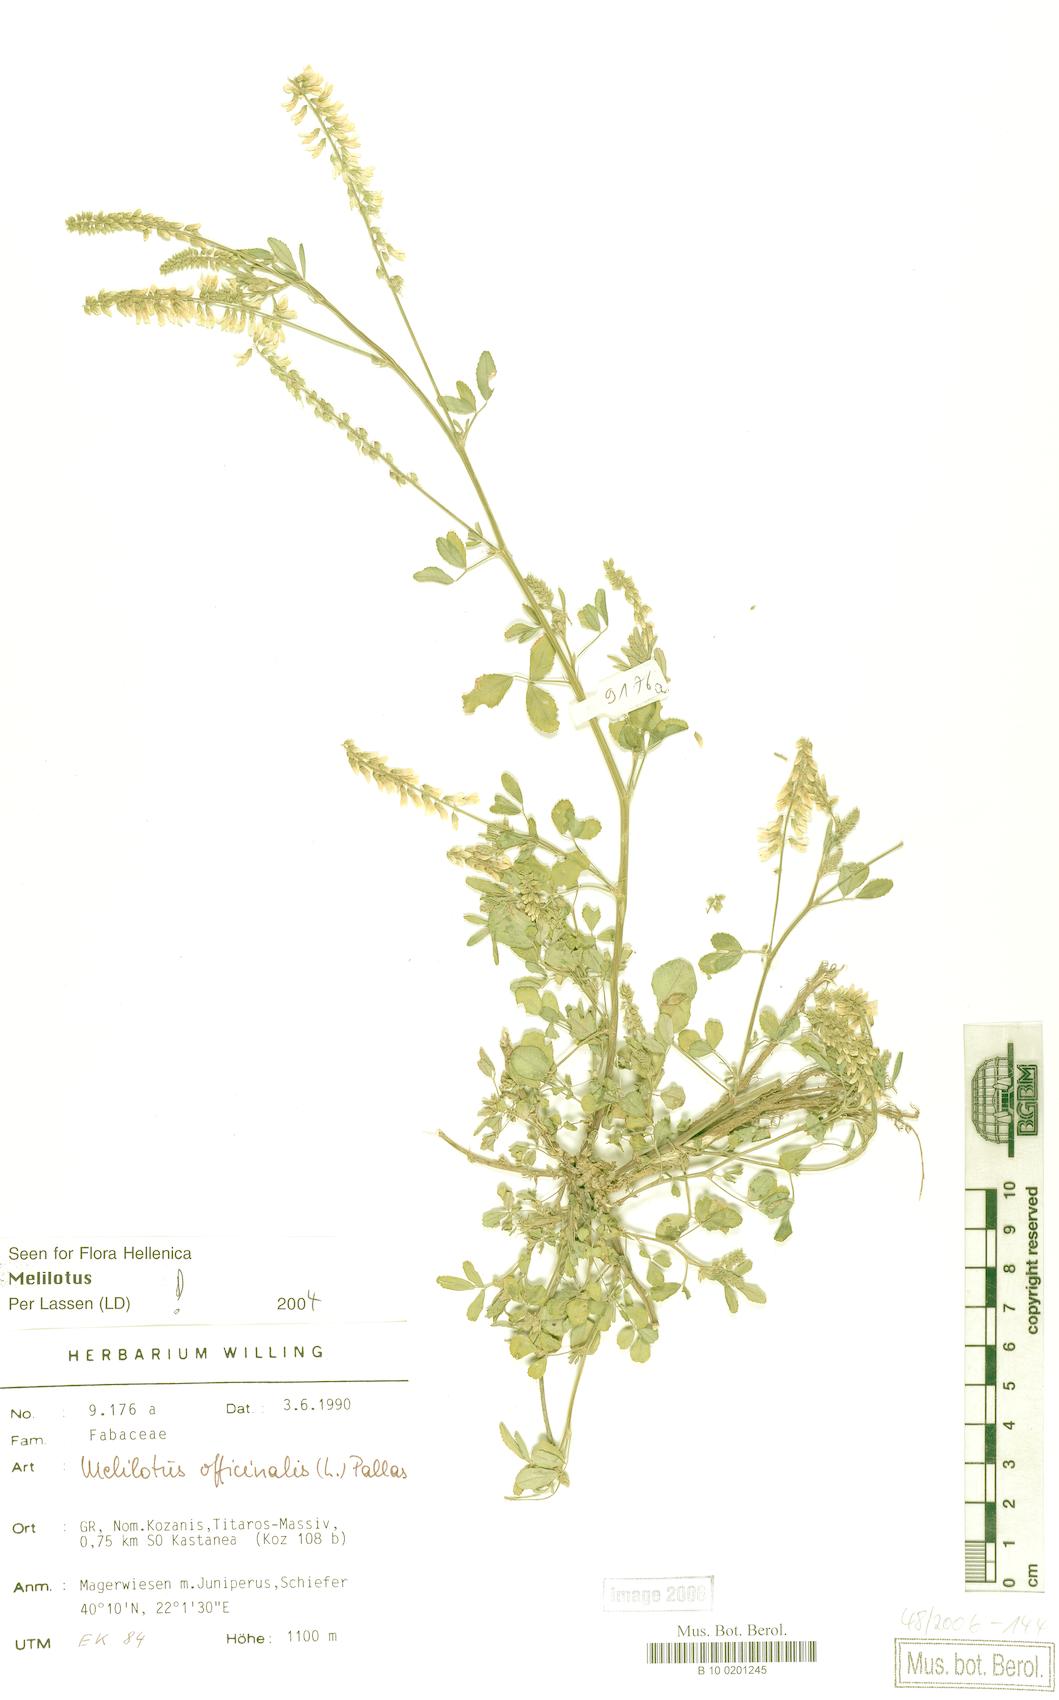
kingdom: Plantae
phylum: Tracheophyta
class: Magnoliopsida
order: Fabales
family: Fabaceae
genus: Melilotus
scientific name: Melilotus officinalis
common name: Sweetclover
